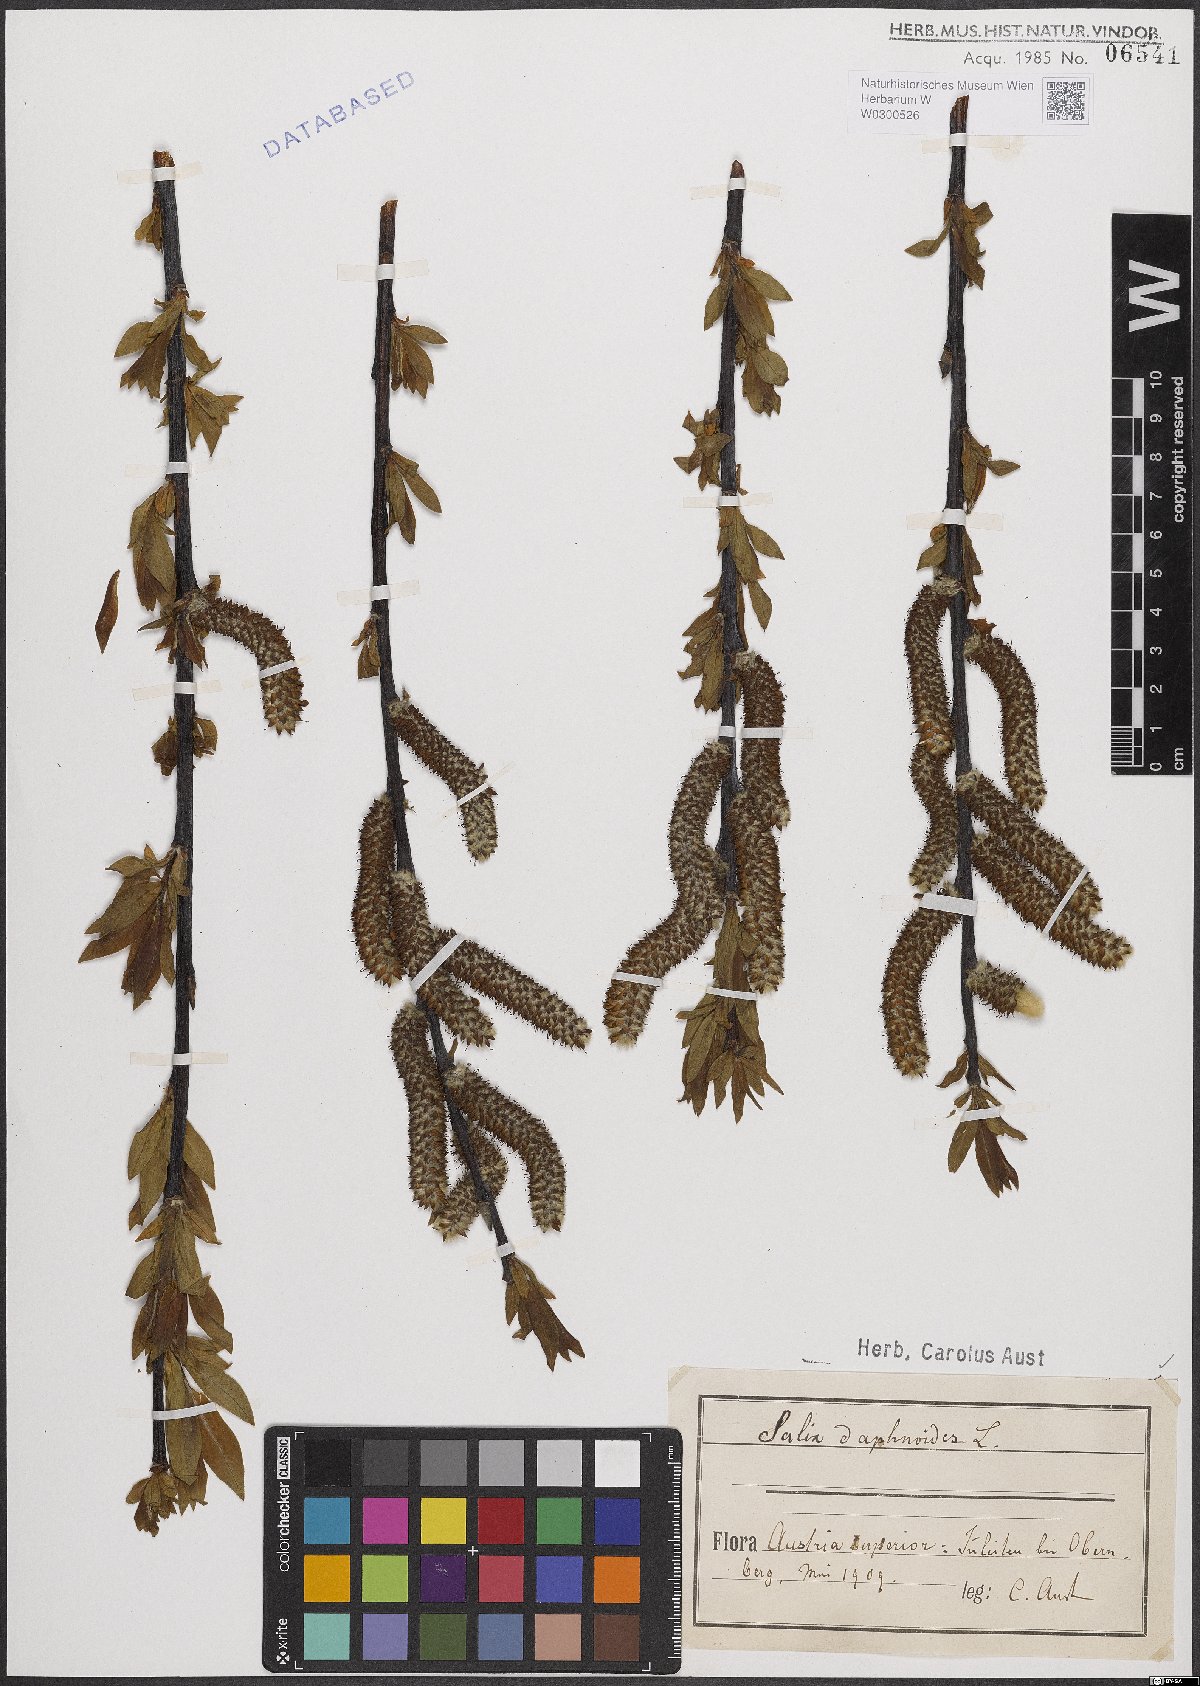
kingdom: Plantae
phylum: Tracheophyta
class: Magnoliopsida
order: Malpighiales
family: Salicaceae
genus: Salix
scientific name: Salix daphnoides
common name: European violet-willow
